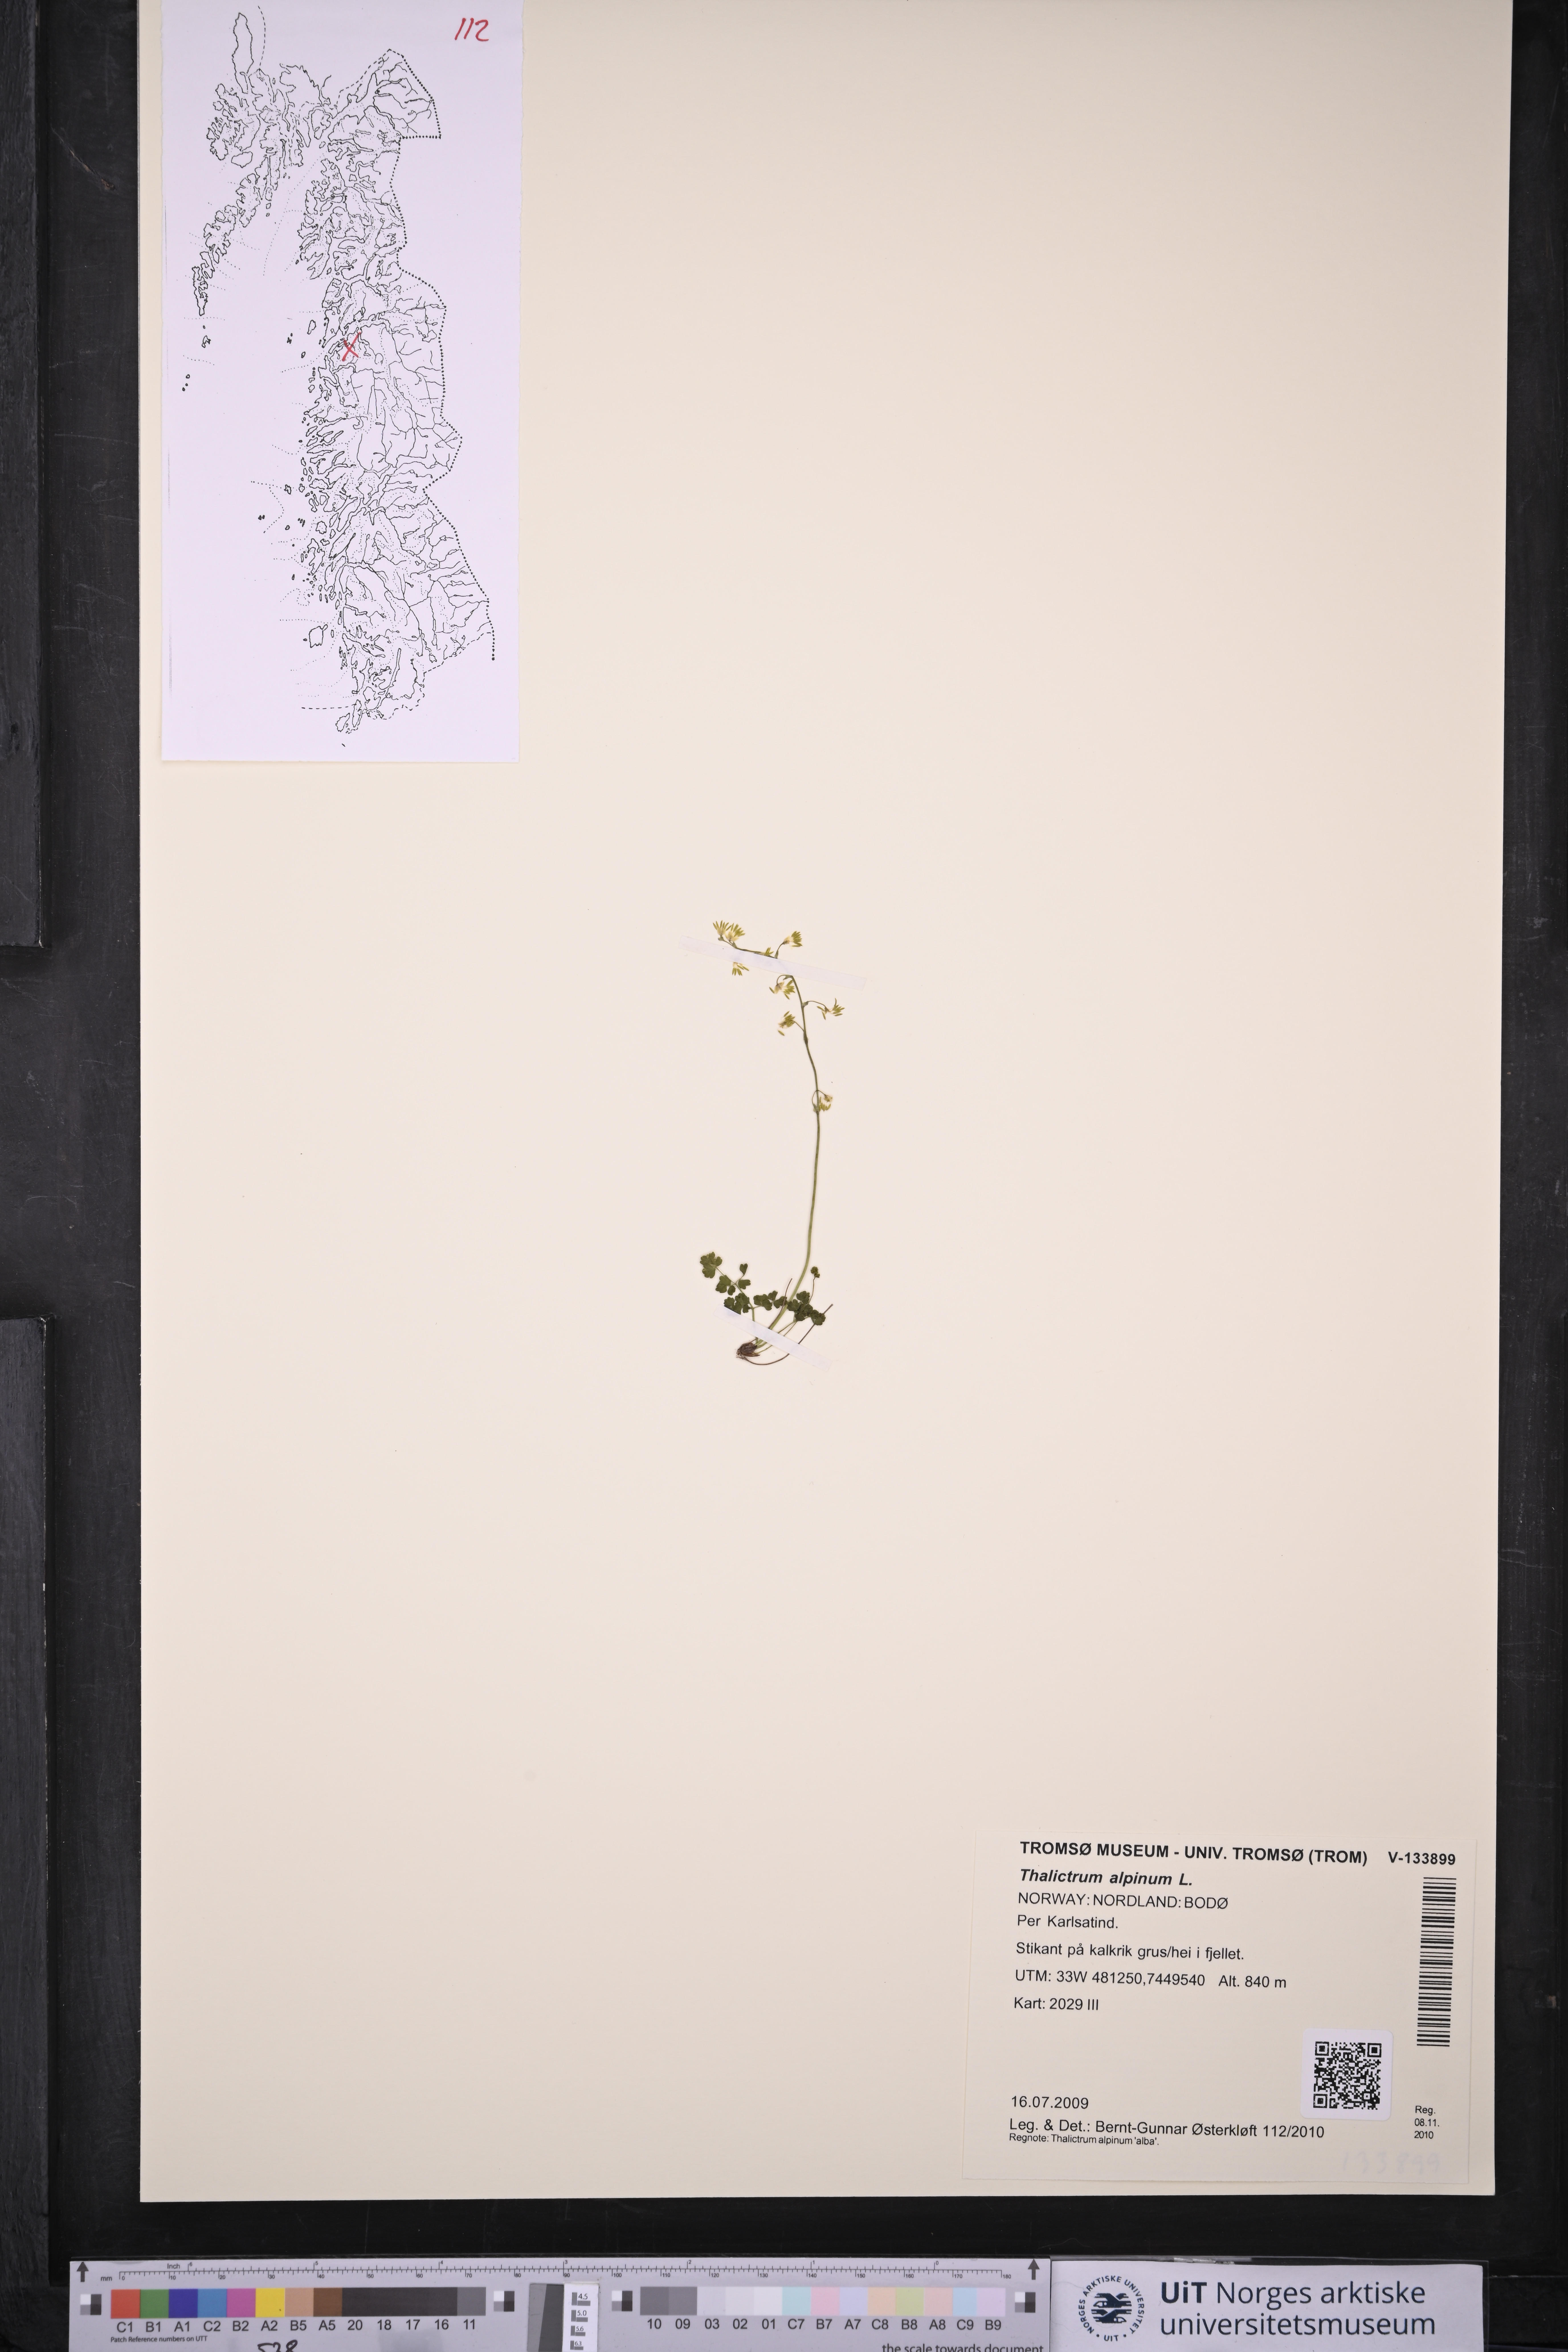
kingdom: Plantae
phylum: Tracheophyta
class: Magnoliopsida
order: Ranunculales
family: Ranunculaceae
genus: Thalictrum
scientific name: Thalictrum alpinum
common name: Alpine meadow-rue
